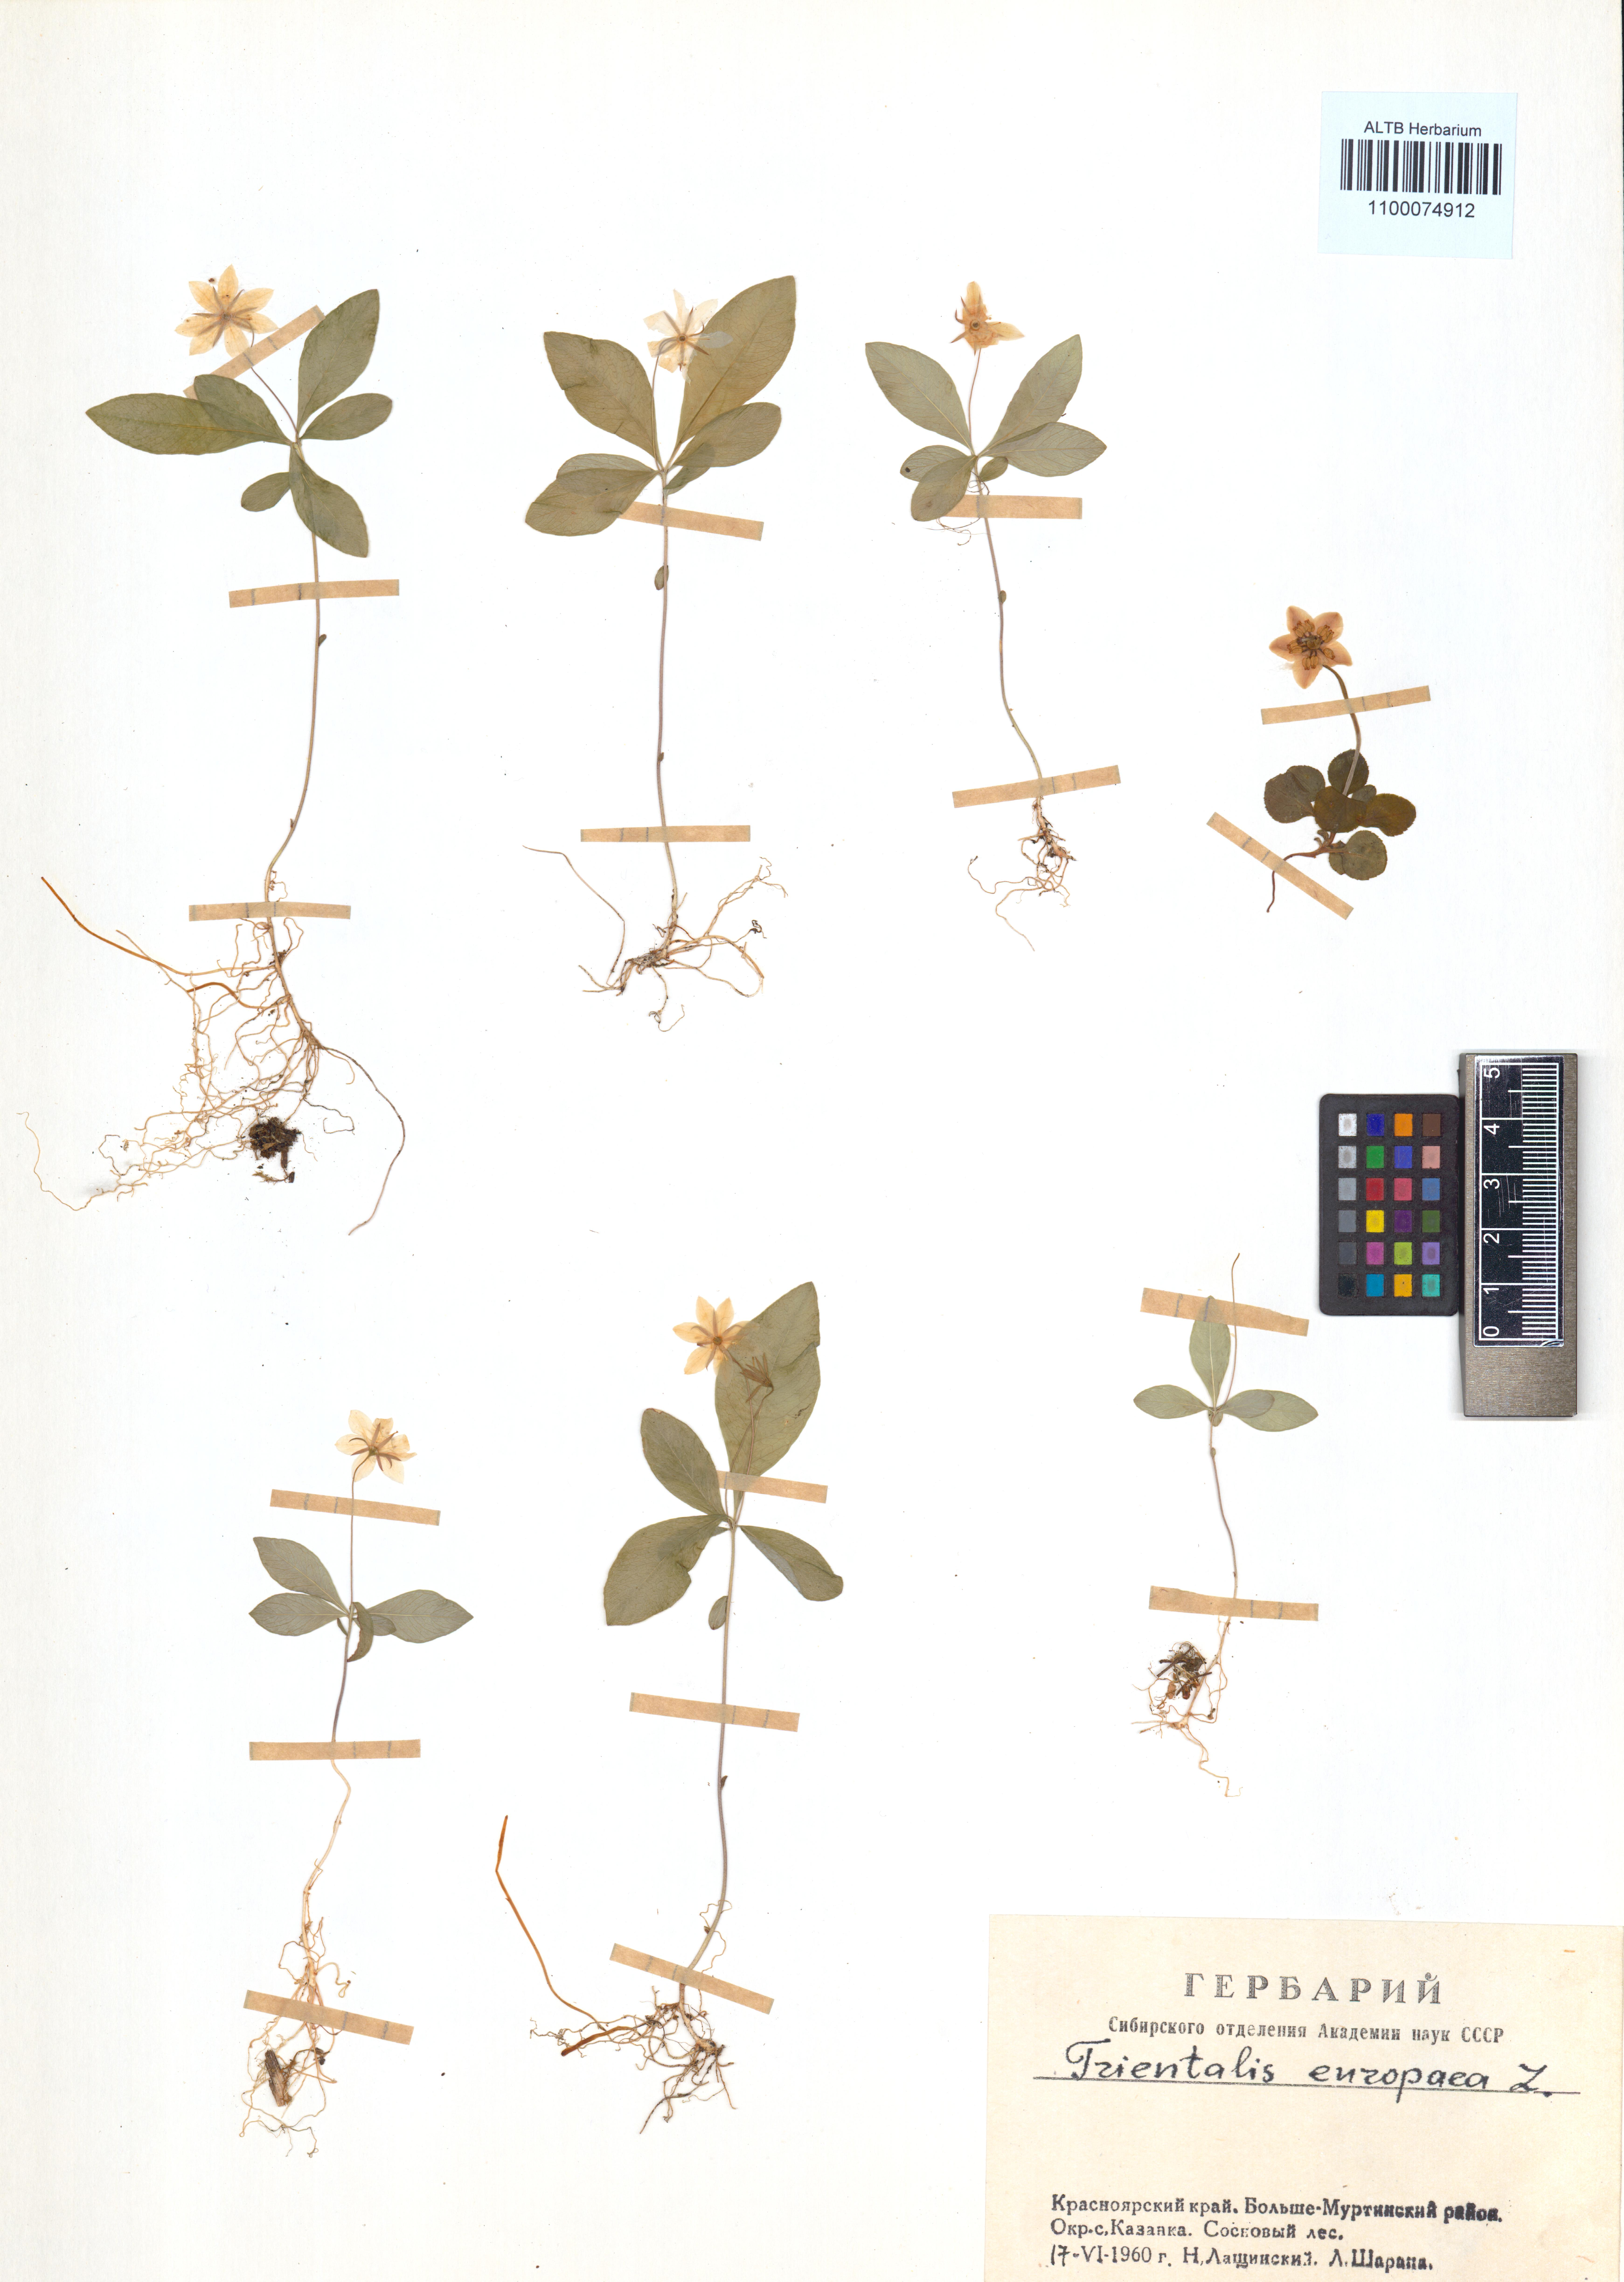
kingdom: Plantae
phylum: Tracheophyta
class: Magnoliopsida
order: Ericales
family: Primulaceae
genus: Lysimachia
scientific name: Lysimachia europaea
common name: Arctic starflower
